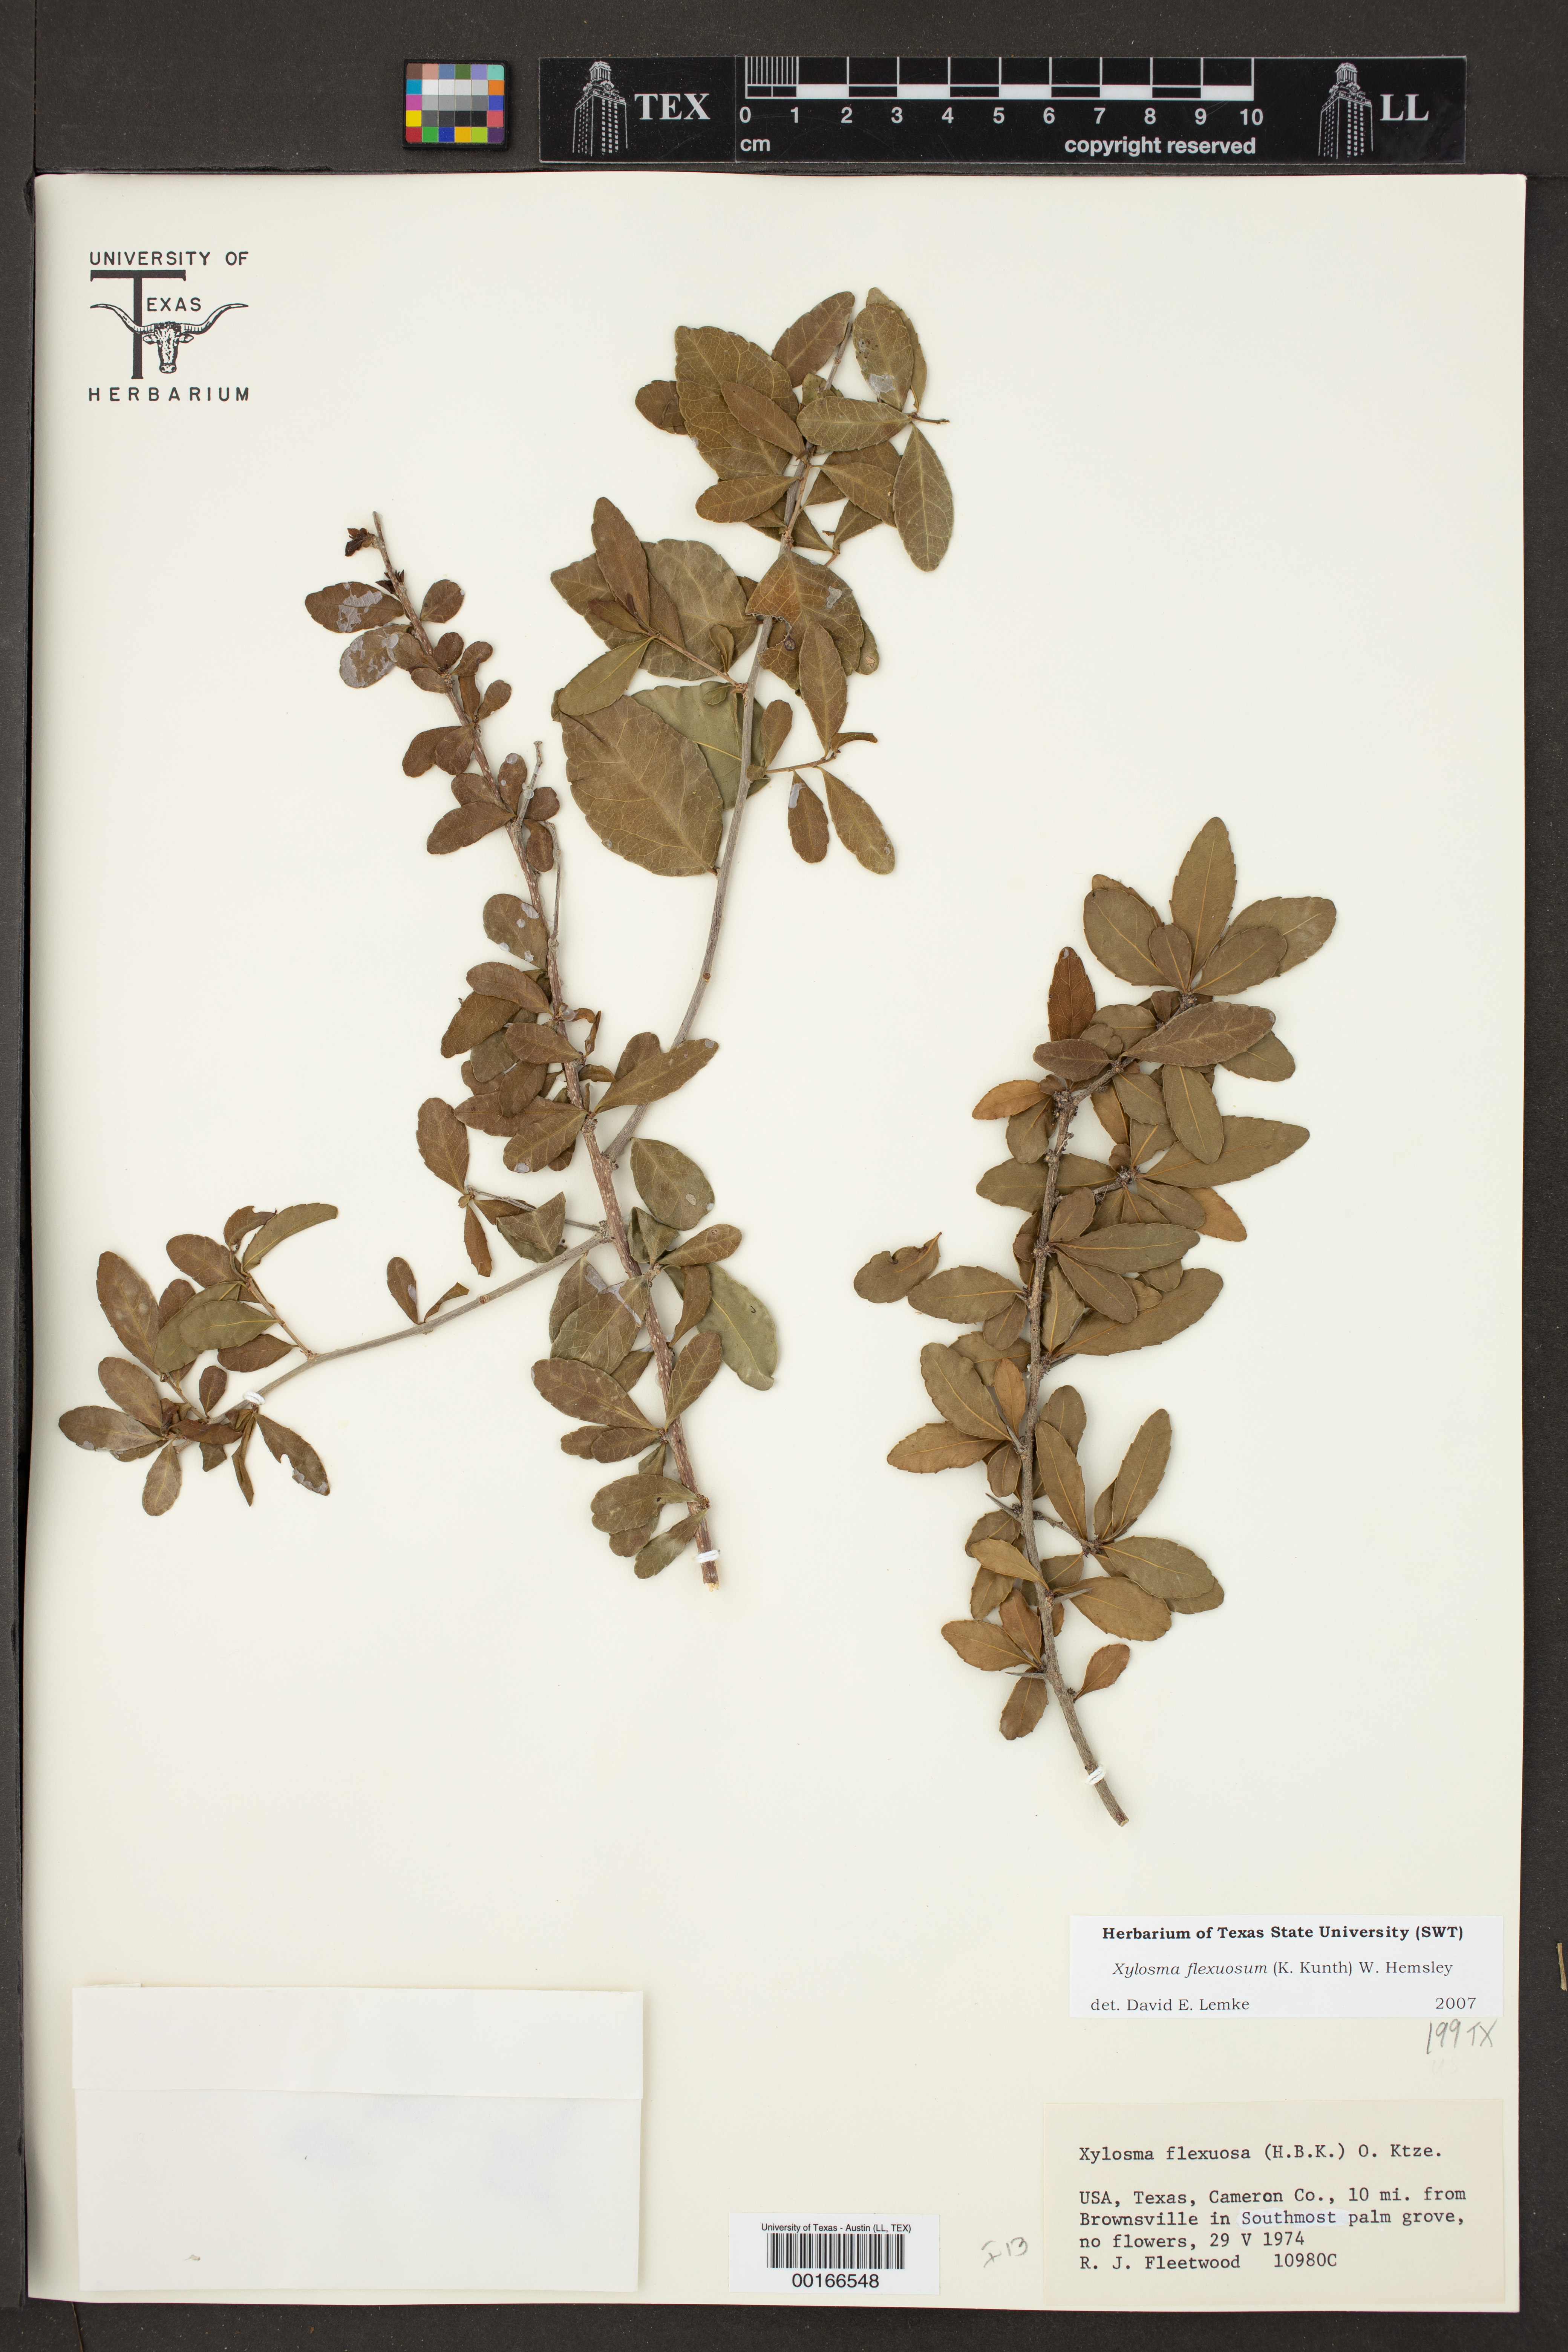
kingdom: Plantae
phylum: Tracheophyta
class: Magnoliopsida
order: Malpighiales
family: Salicaceae
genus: Xylosma
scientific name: Xylosma flexuosa
